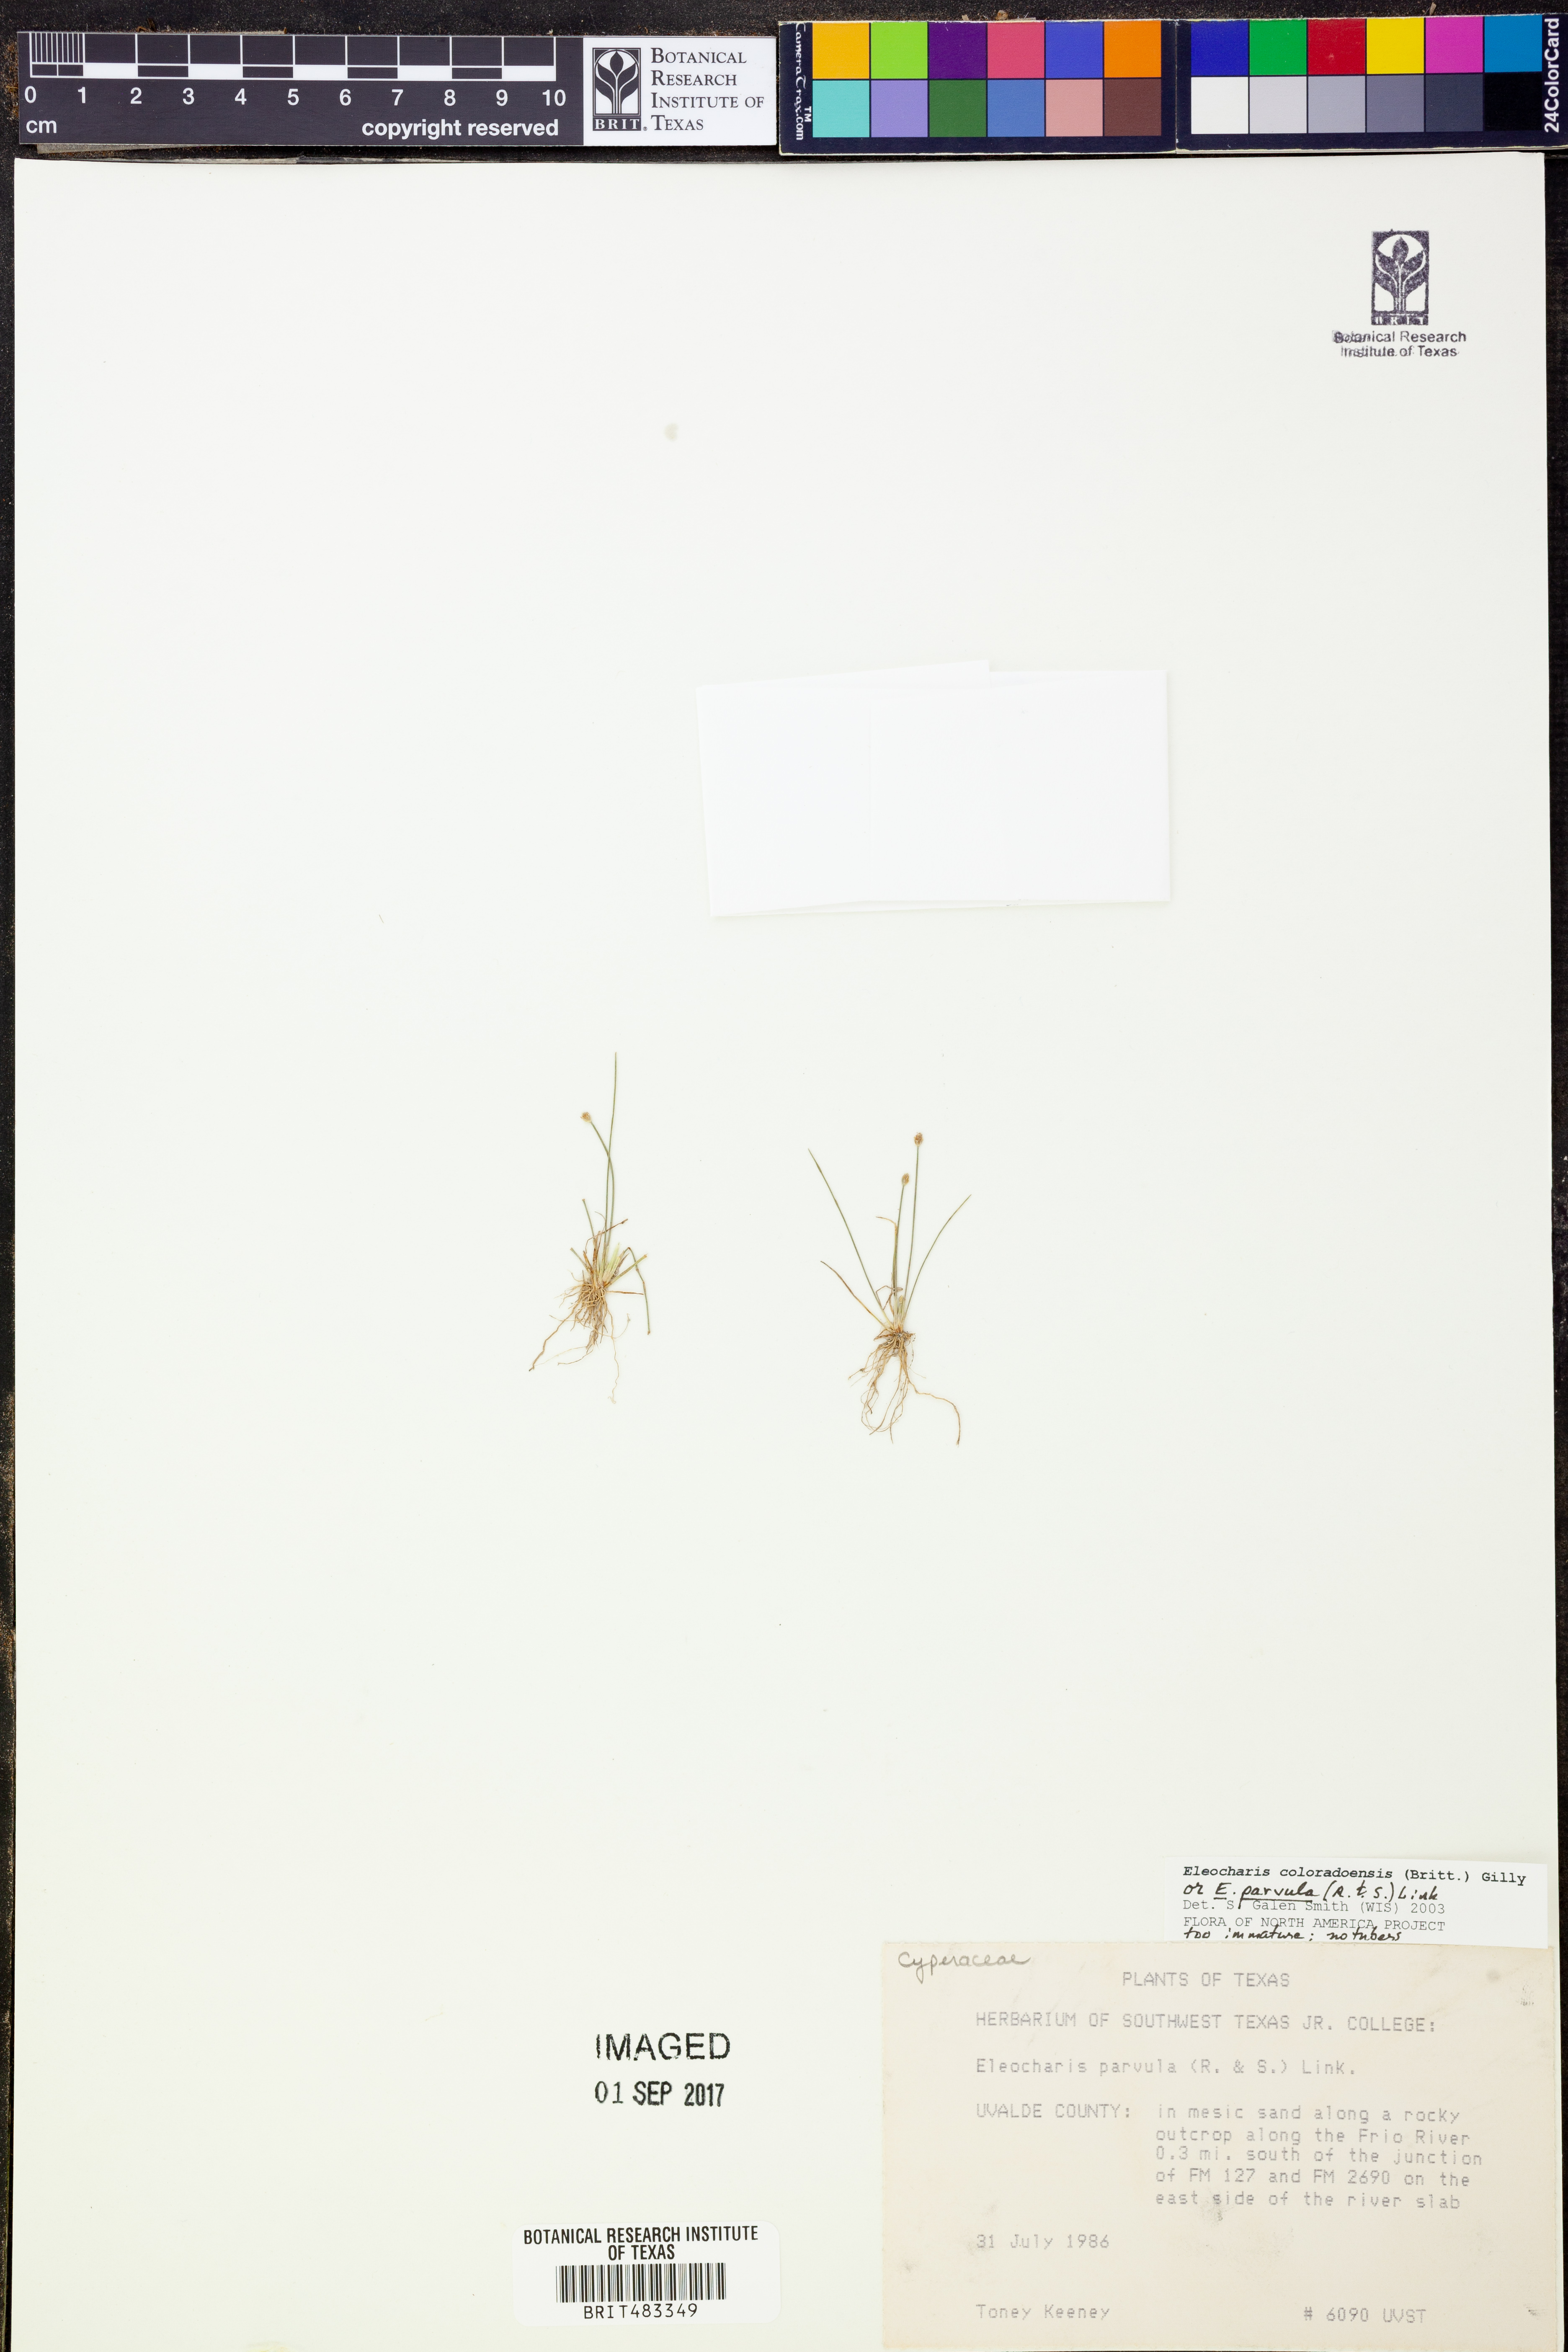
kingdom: Plantae
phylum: Tracheophyta
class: Liliopsida
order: Poales
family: Cyperaceae
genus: Eleocharis
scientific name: Eleocharis coloradoensis
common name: Colorado spikerush
